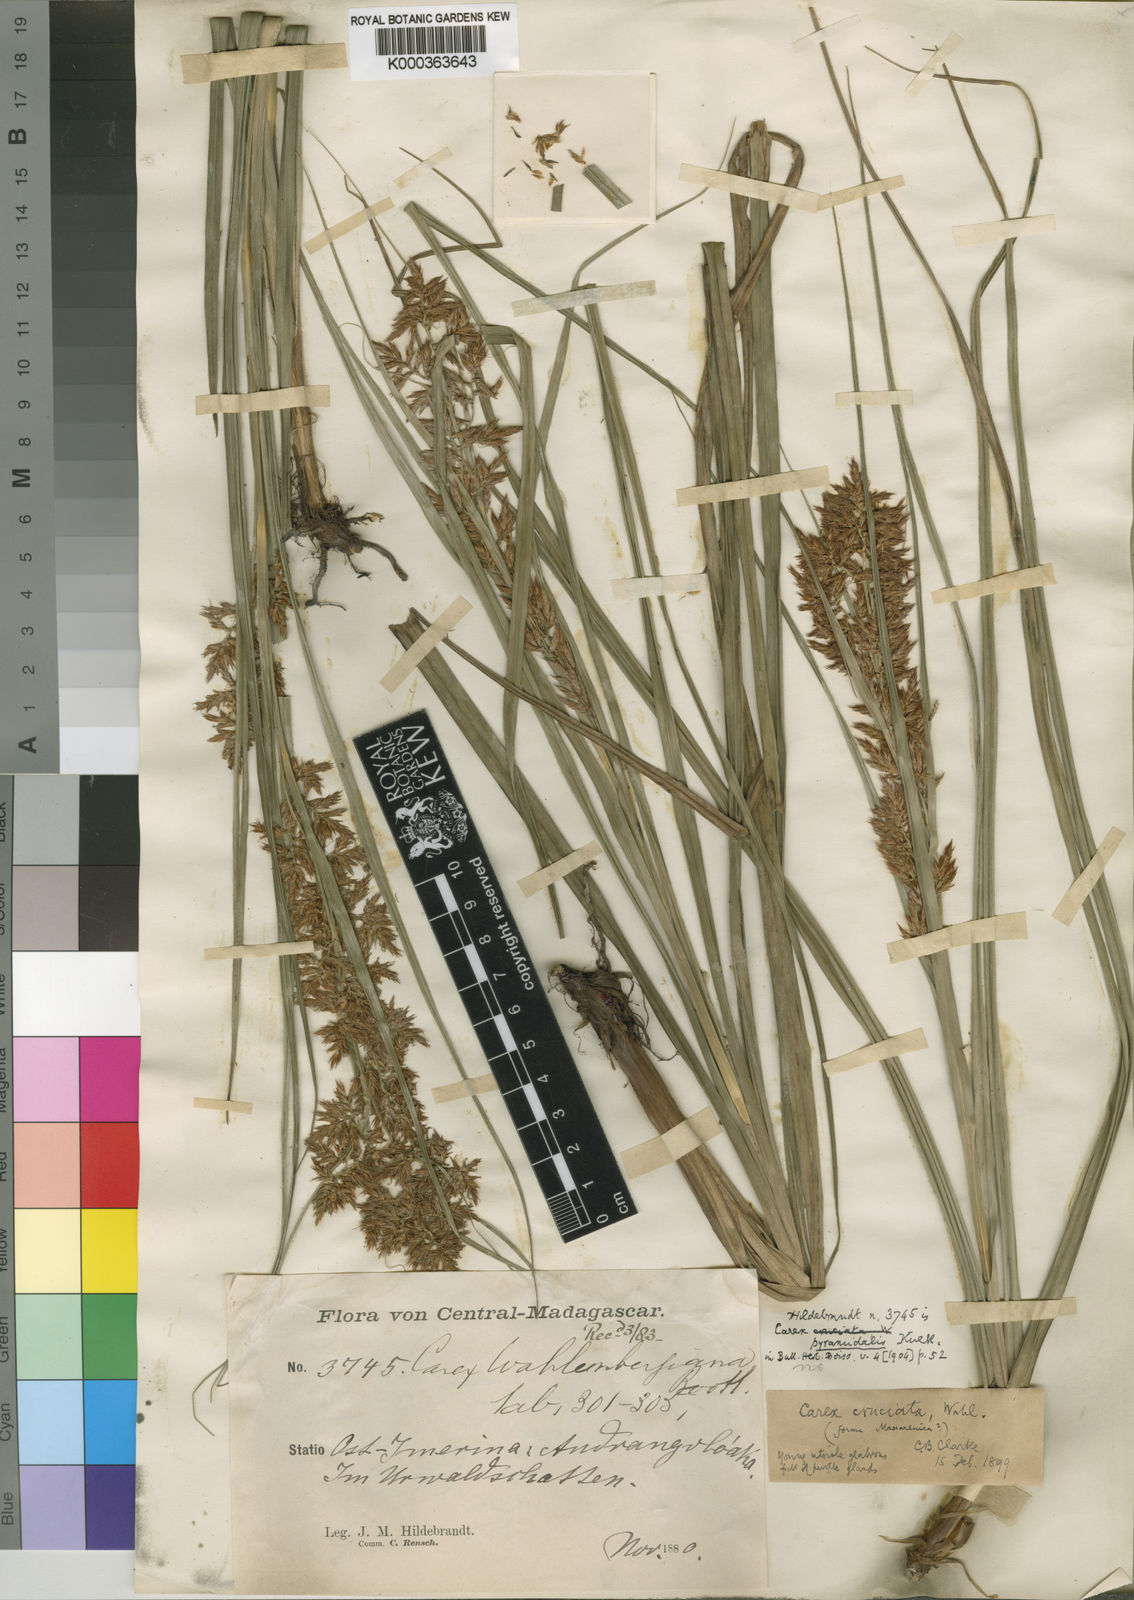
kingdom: Plantae
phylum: Tracheophyta
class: Liliopsida
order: Poales
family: Cyperaceae
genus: Carex
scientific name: Carex
